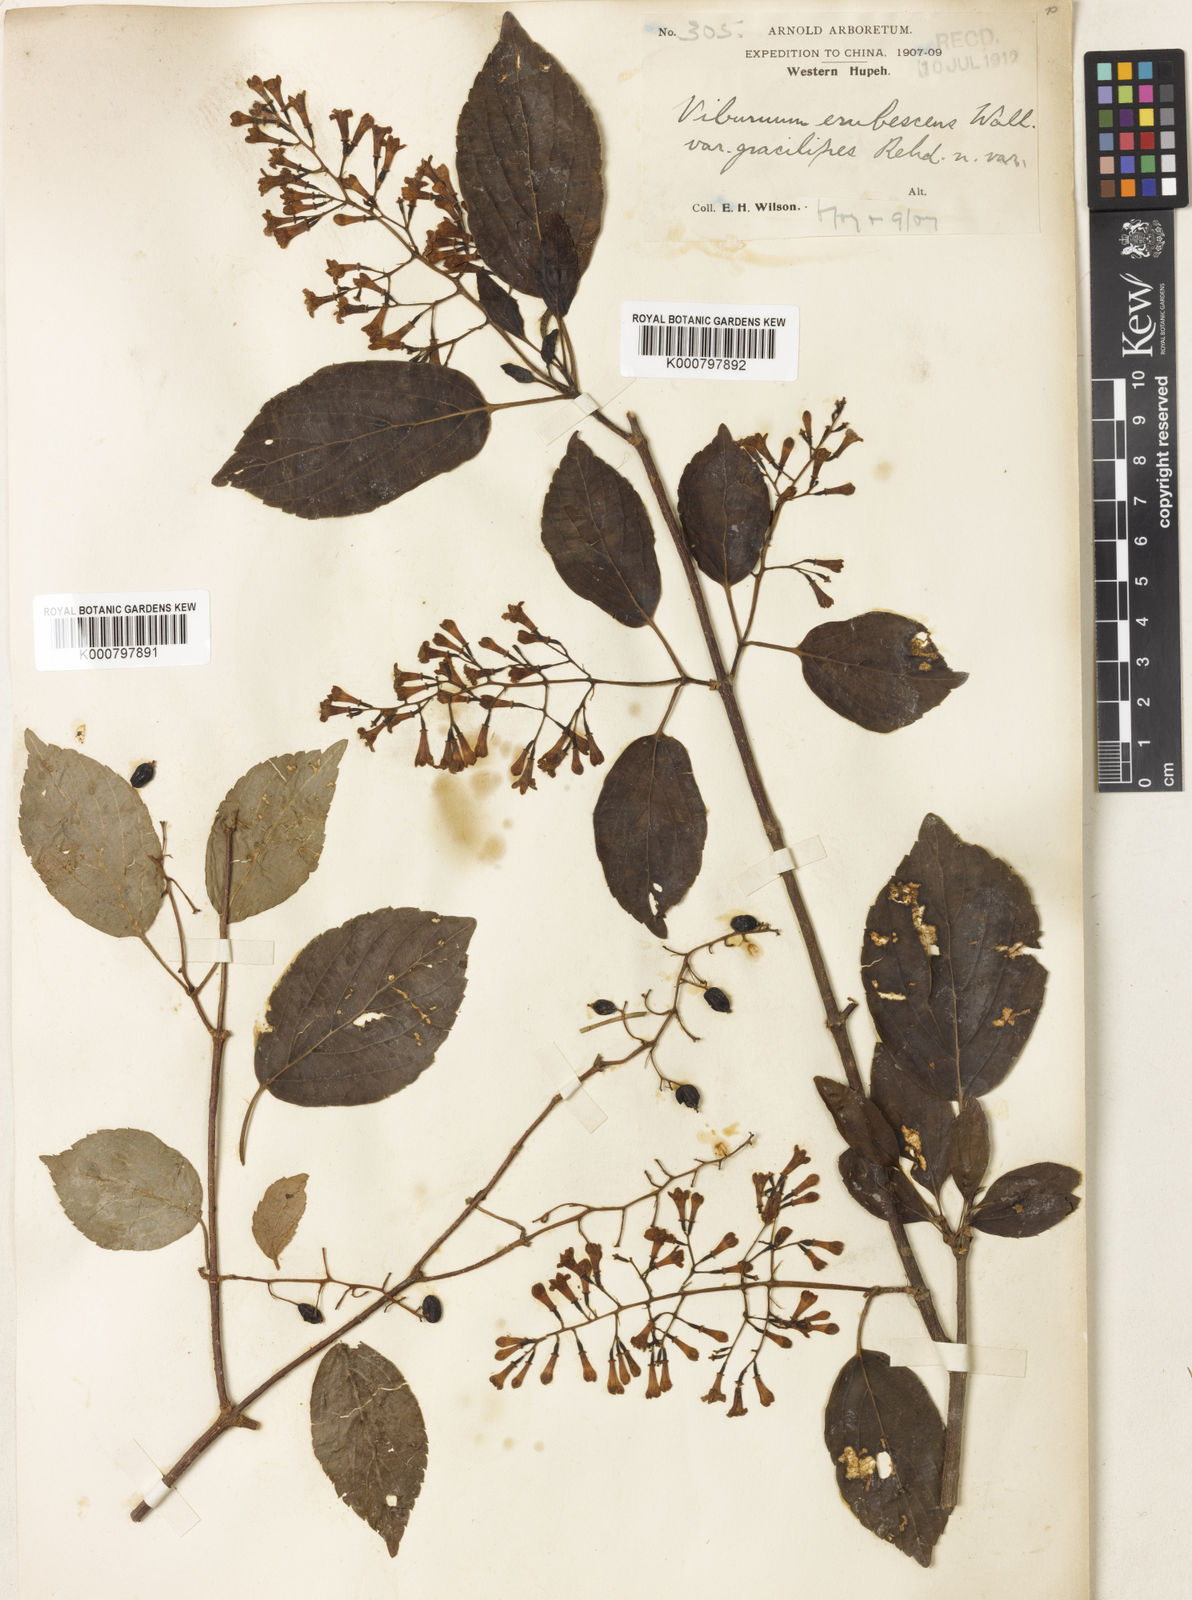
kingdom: Plantae
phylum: Tracheophyta
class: Magnoliopsida
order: Dipsacales
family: Viburnaceae
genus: Viburnum
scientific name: Viburnum
